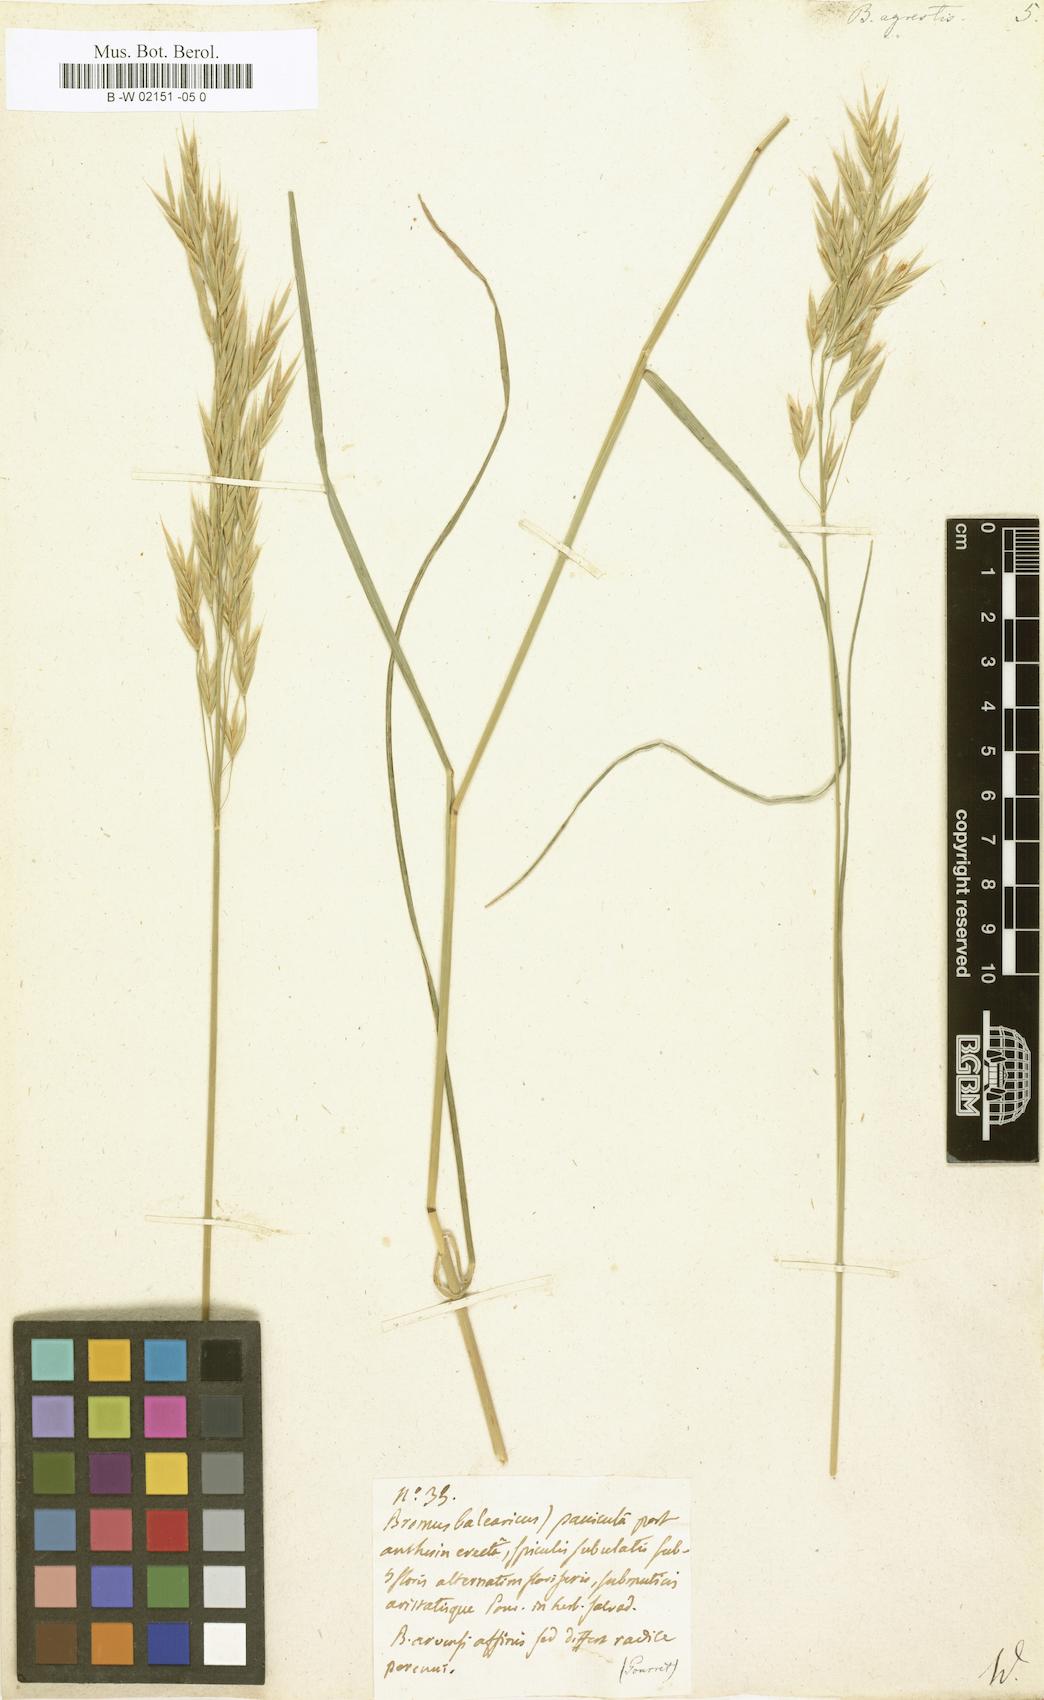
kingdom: Plantae
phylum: Tracheophyta
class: Liliopsida
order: Poales
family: Poaceae
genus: Bromus
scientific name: Bromus erectus
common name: Erect brome
